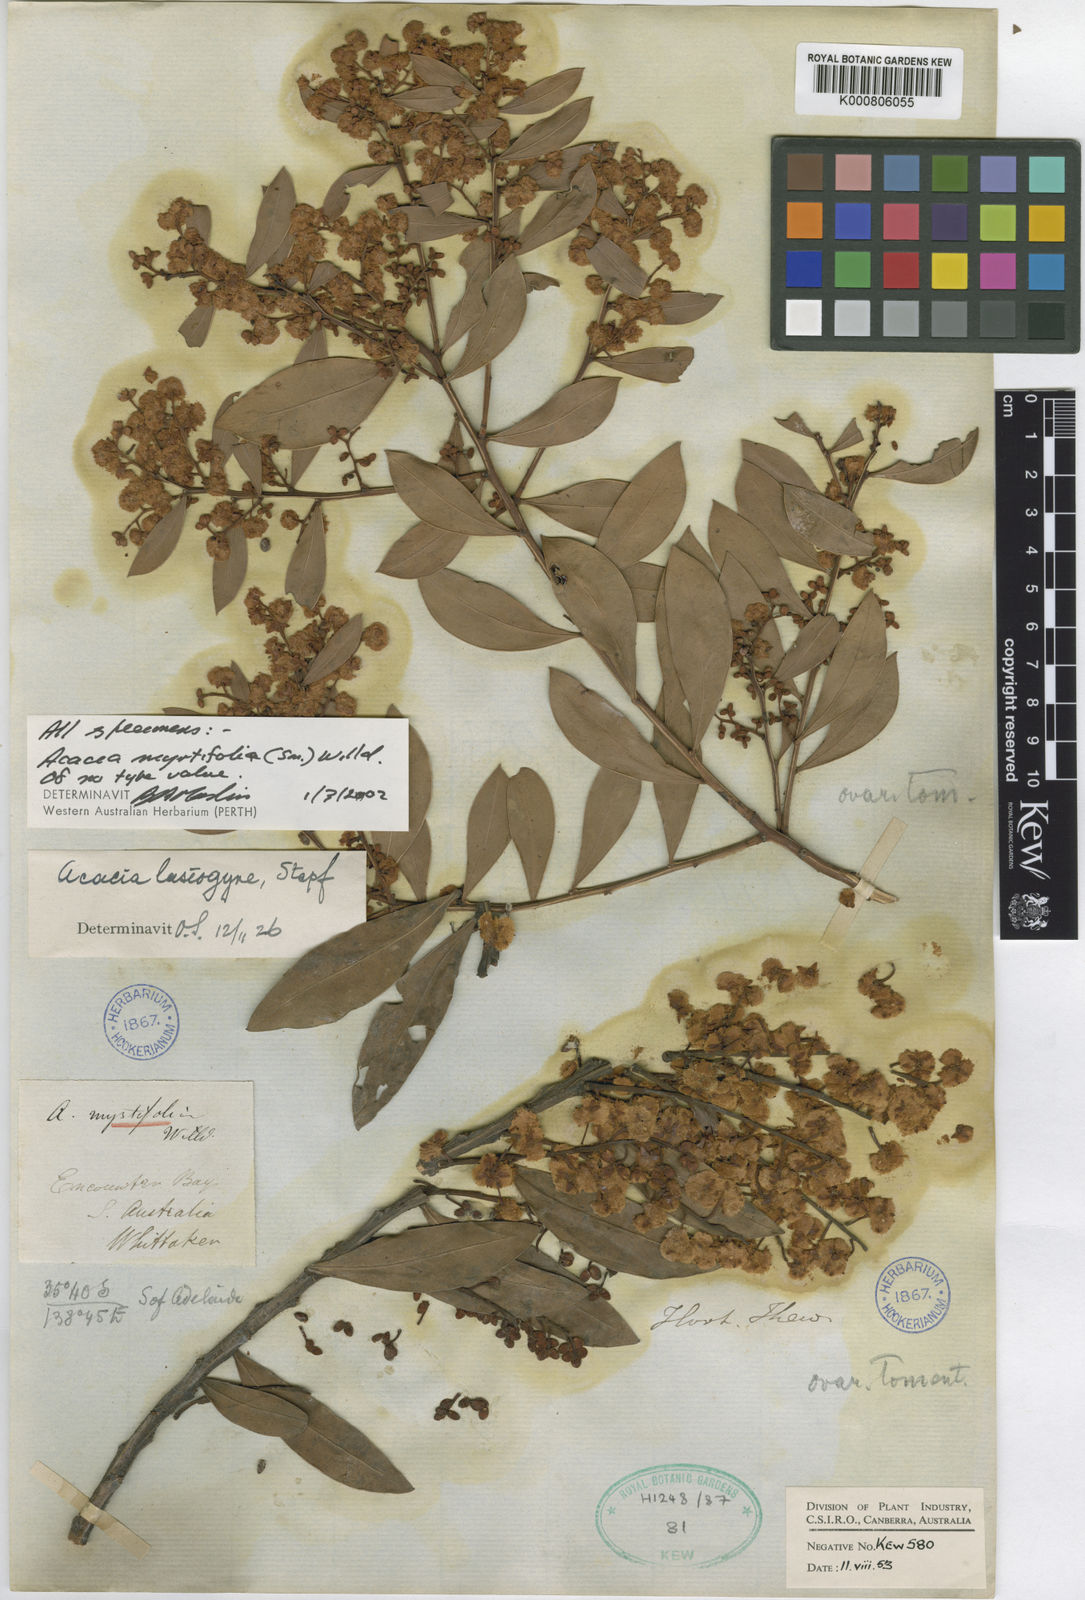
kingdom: Plantae
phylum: Tracheophyta
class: Magnoliopsida
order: Fabales
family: Fabaceae
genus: Acacia
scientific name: Acacia myrtifolia
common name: Myrtle wattle
